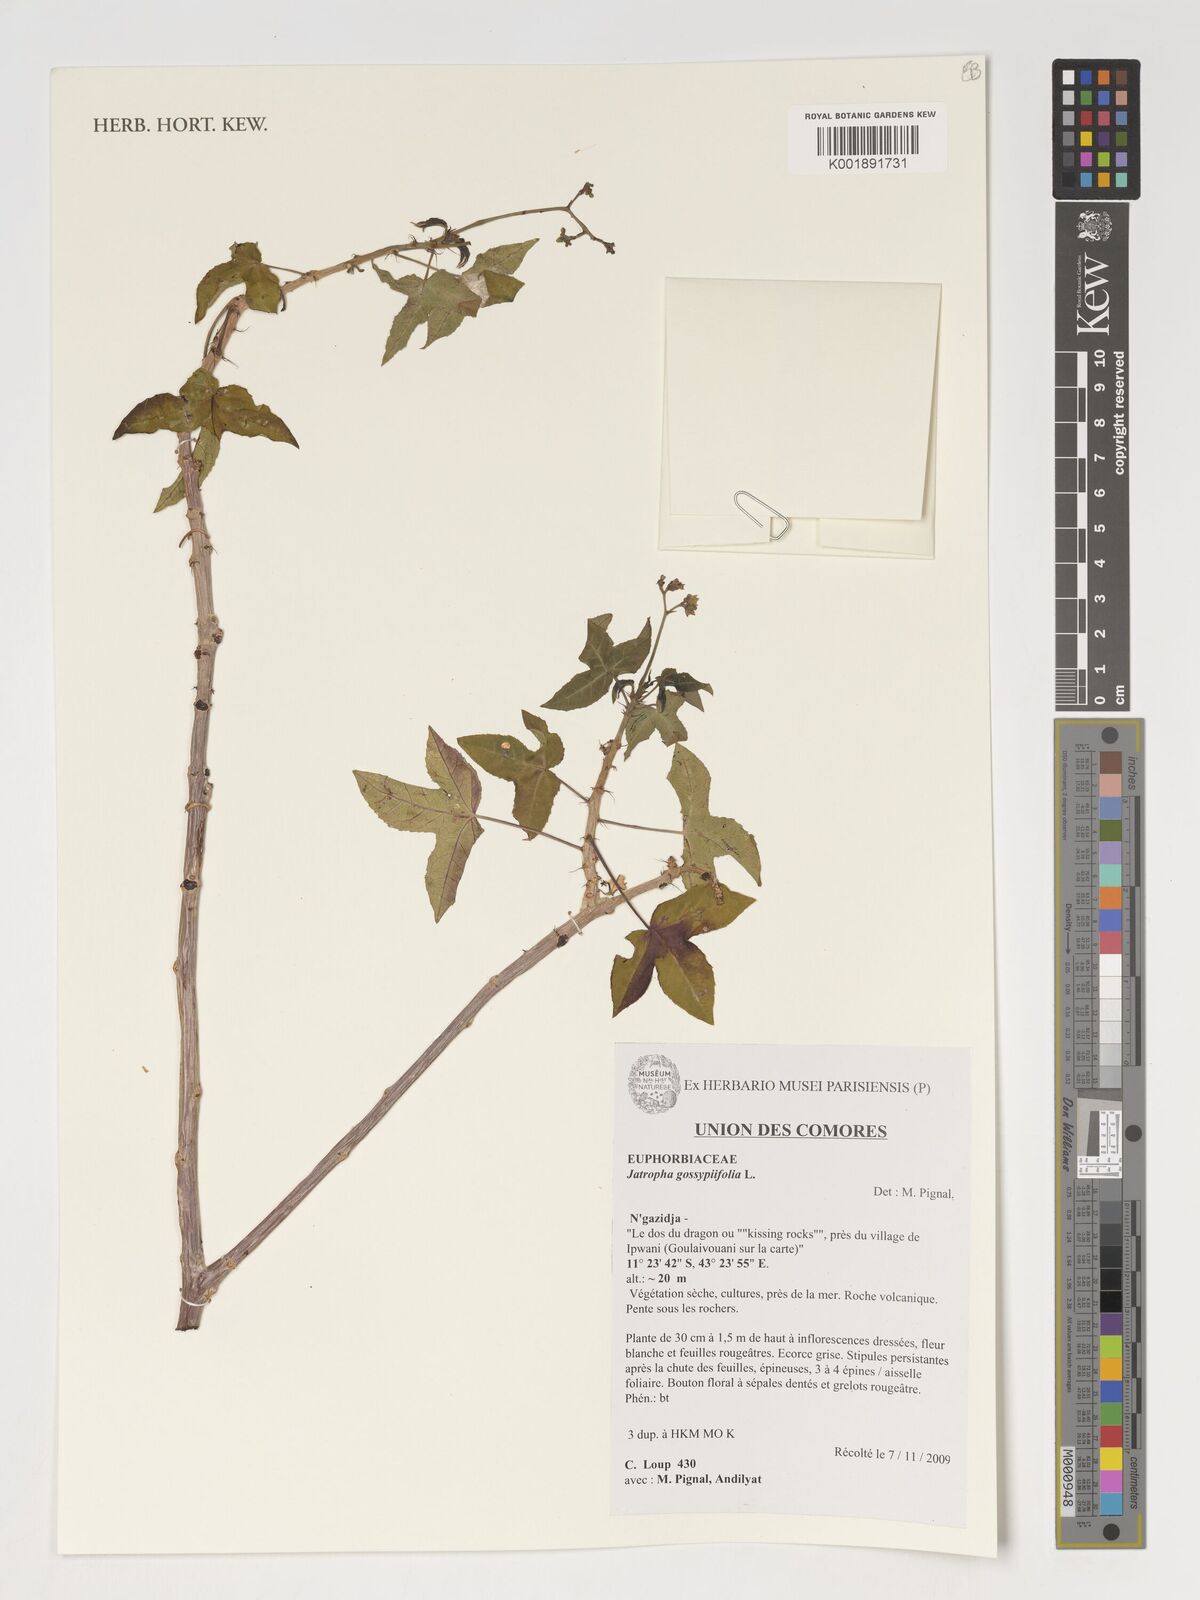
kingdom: Plantae
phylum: Tracheophyta
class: Magnoliopsida
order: Malpighiales
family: Euphorbiaceae
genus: Jatropha
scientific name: Jatropha gossypiifolia
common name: Bellyache bush
